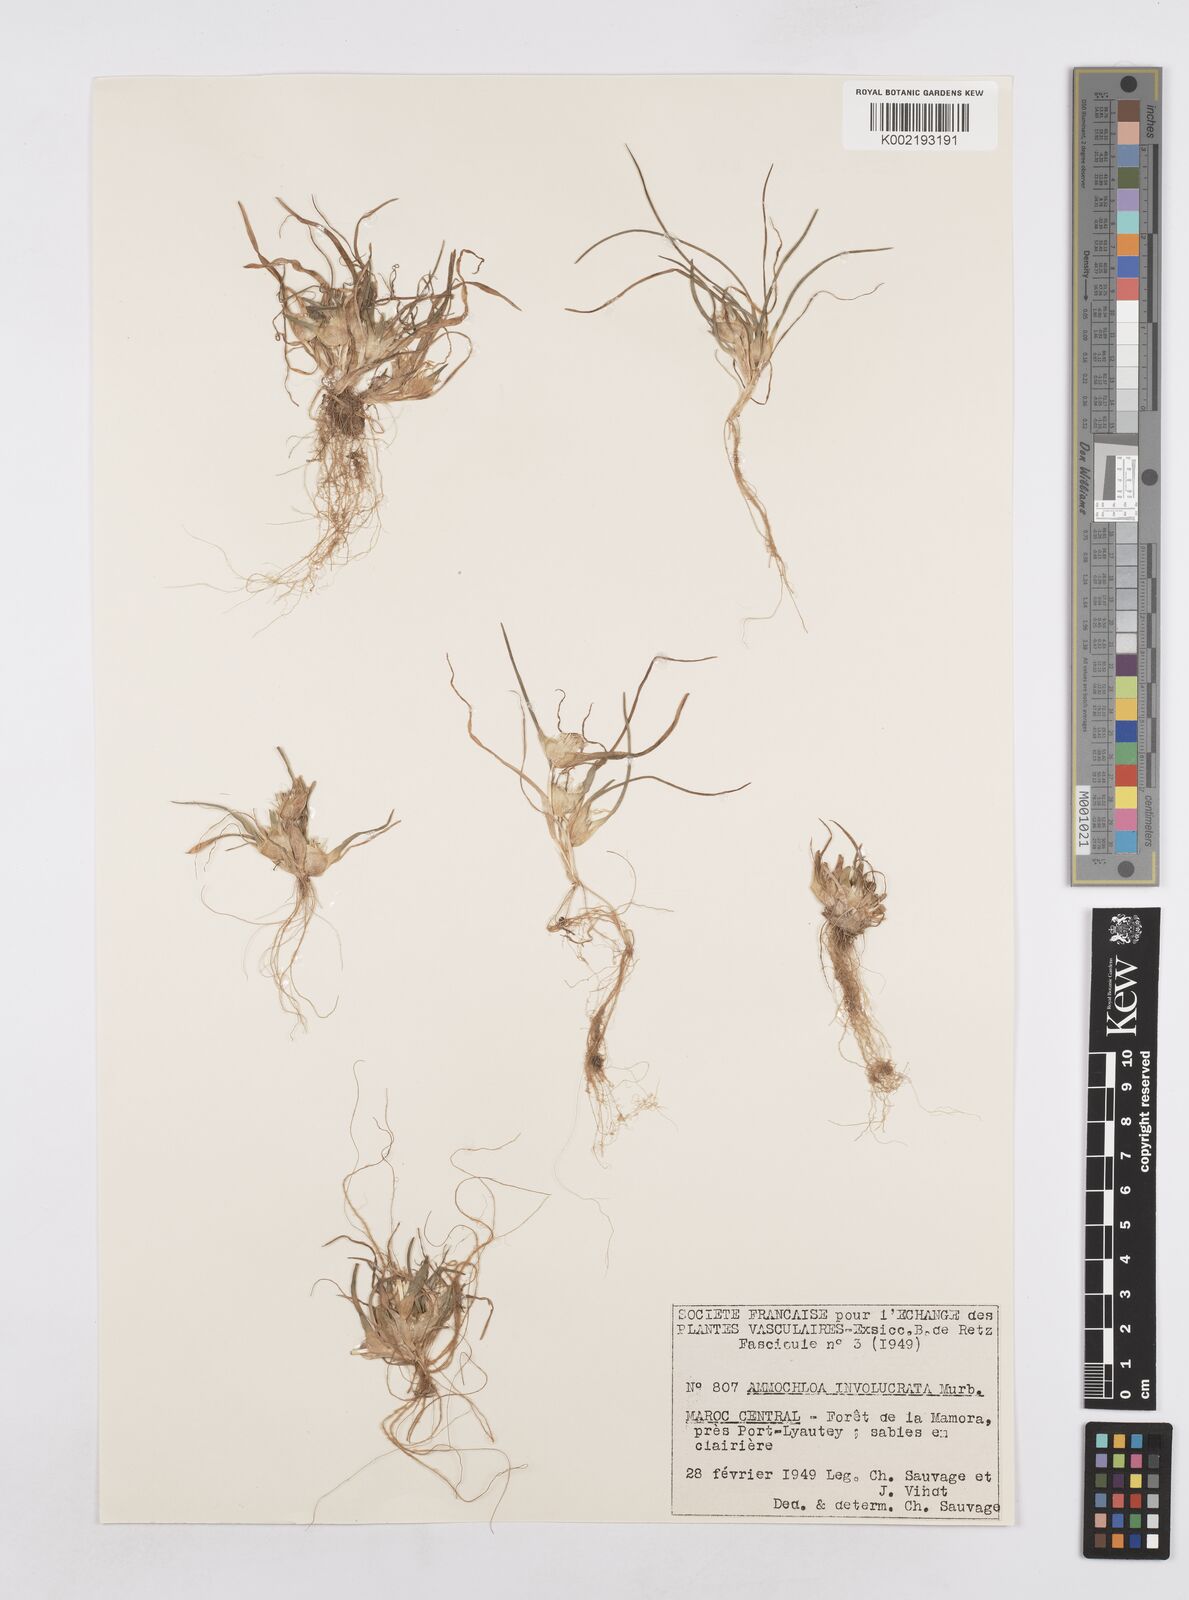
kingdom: Plantae
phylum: Tracheophyta
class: Liliopsida
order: Poales
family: Poaceae
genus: Ammochloa
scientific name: Ammochloa involucrata
